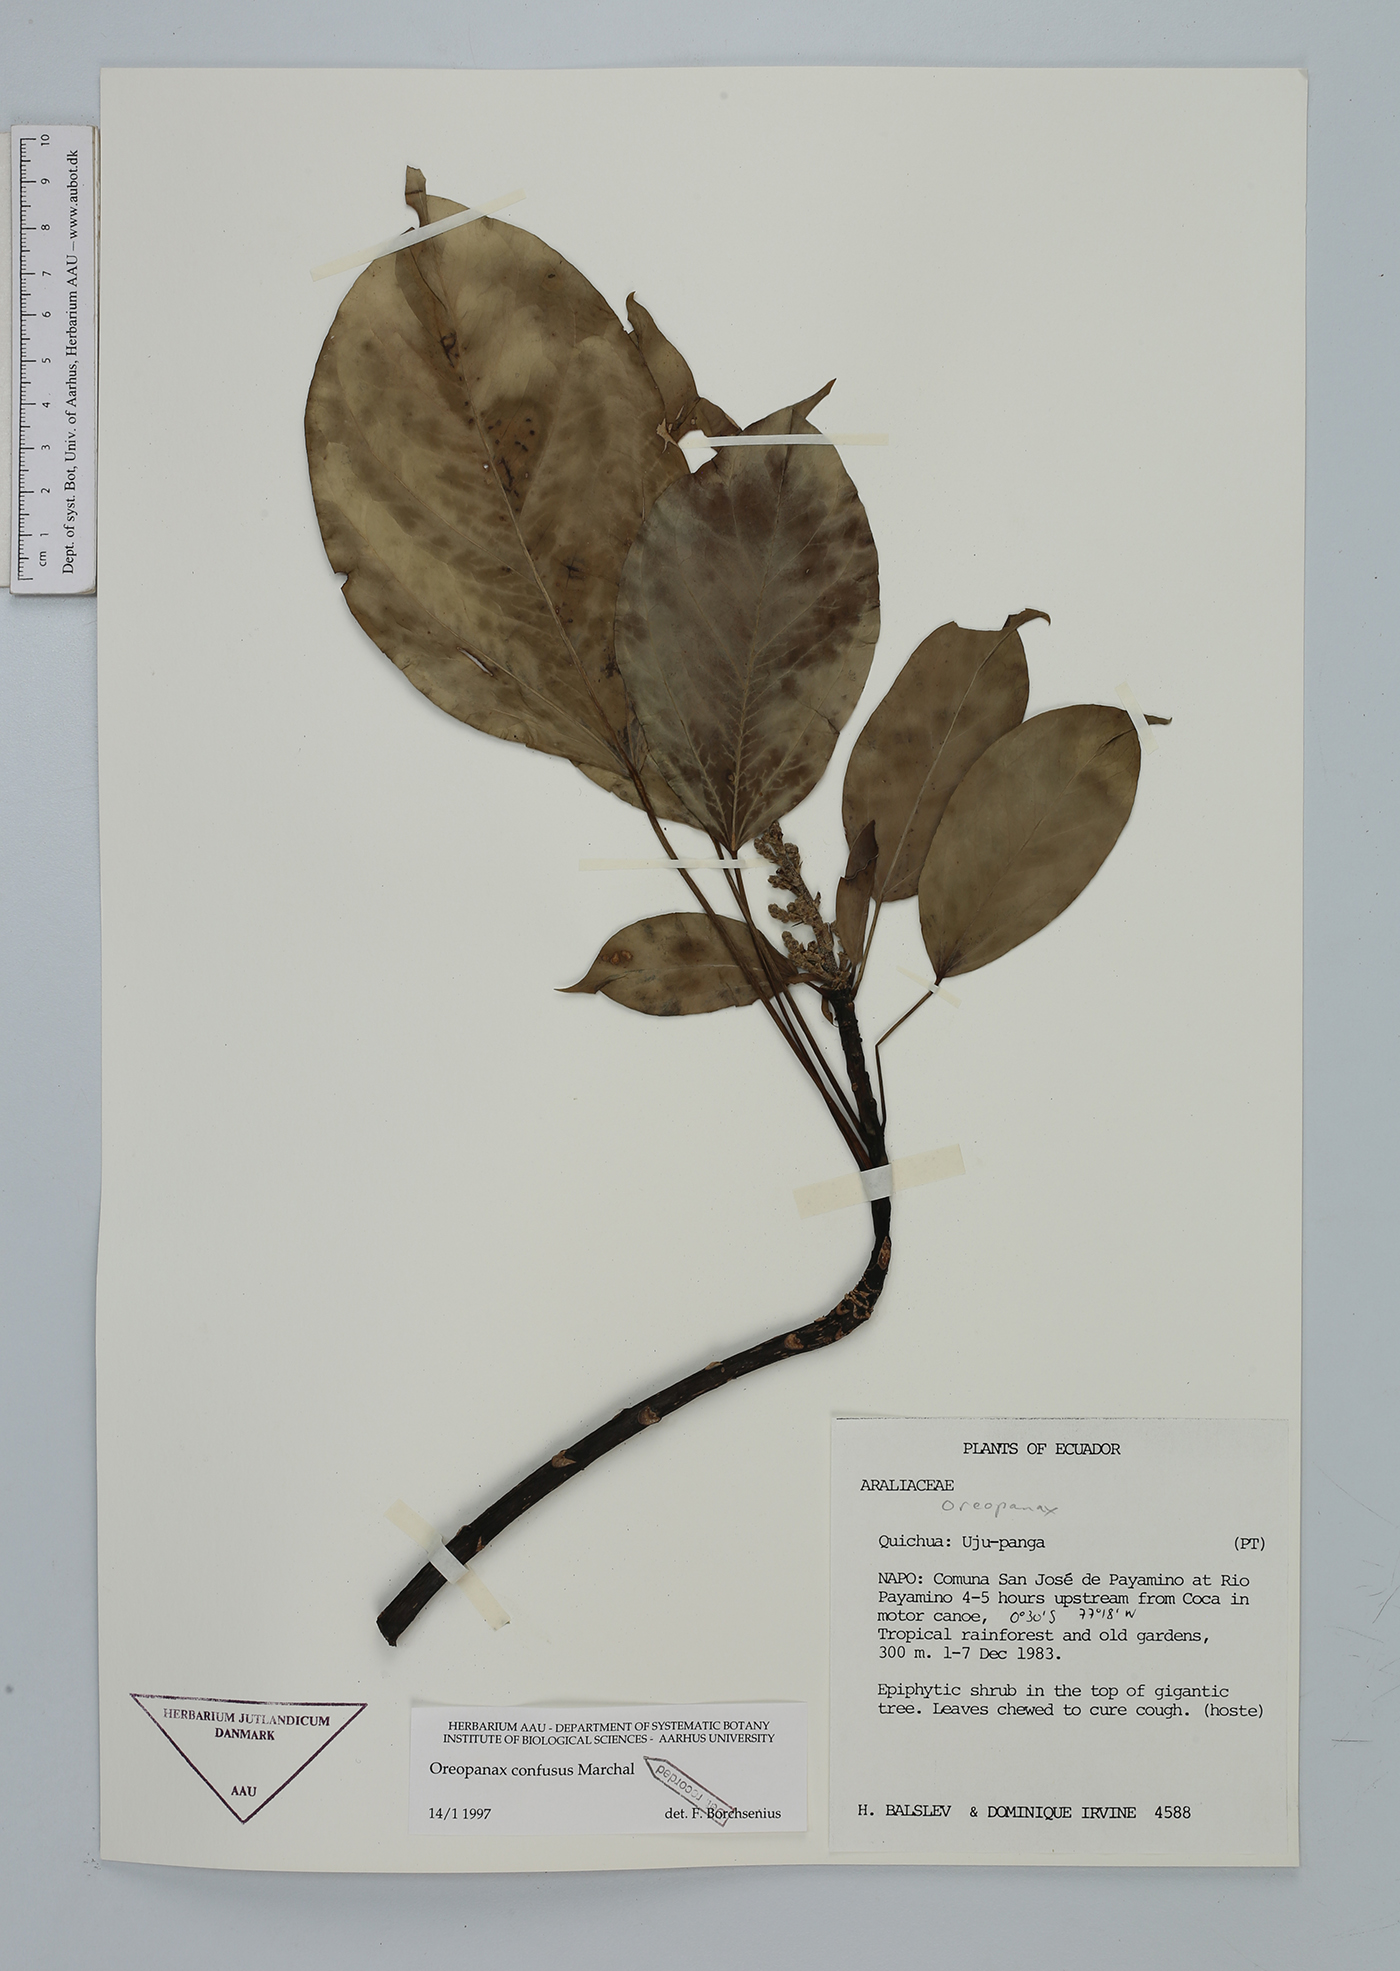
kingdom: Plantae
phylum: Tracheophyta
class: Magnoliopsida
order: Apiales
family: Araliaceae
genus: Oreopanax
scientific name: Oreopanax confusus
